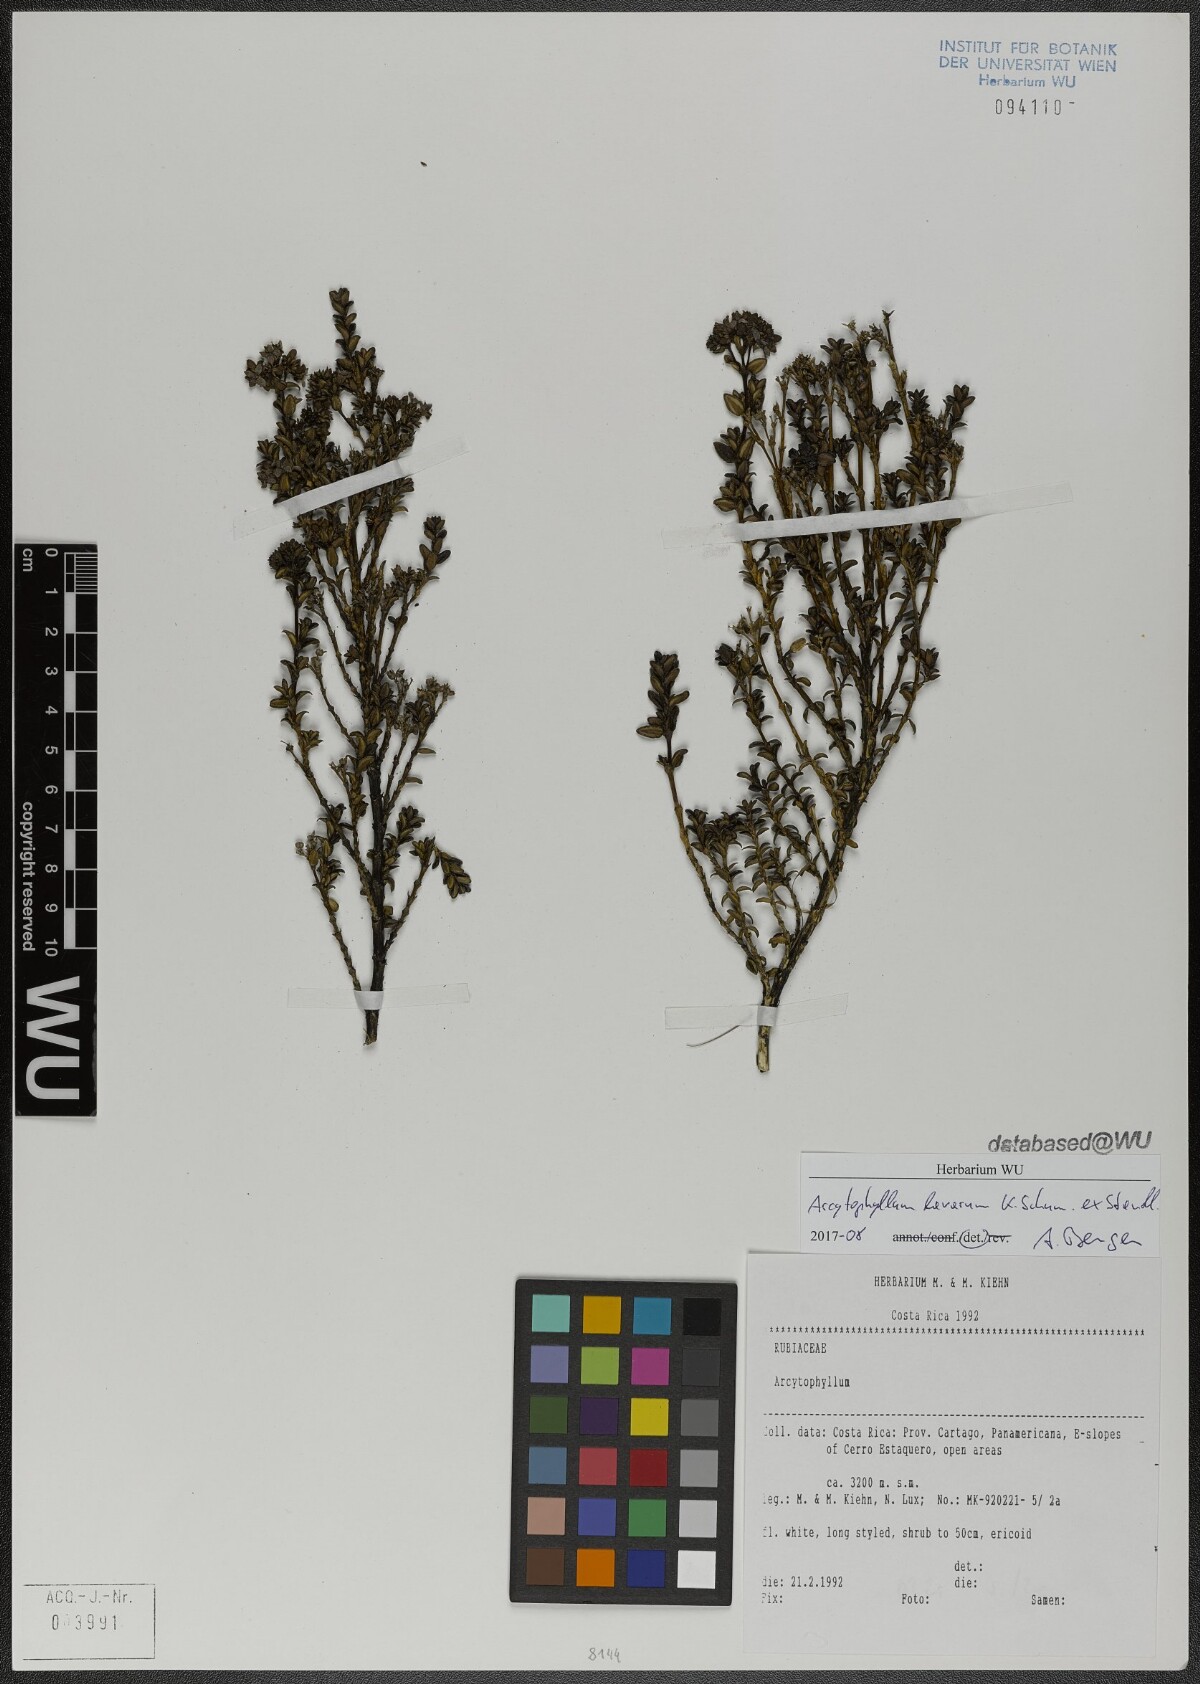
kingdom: Plantae
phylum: Tracheophyta
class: Magnoliopsida
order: Gentianales
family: Rubiaceae
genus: Arcytophyllum
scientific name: Arcytophyllum lavarum
